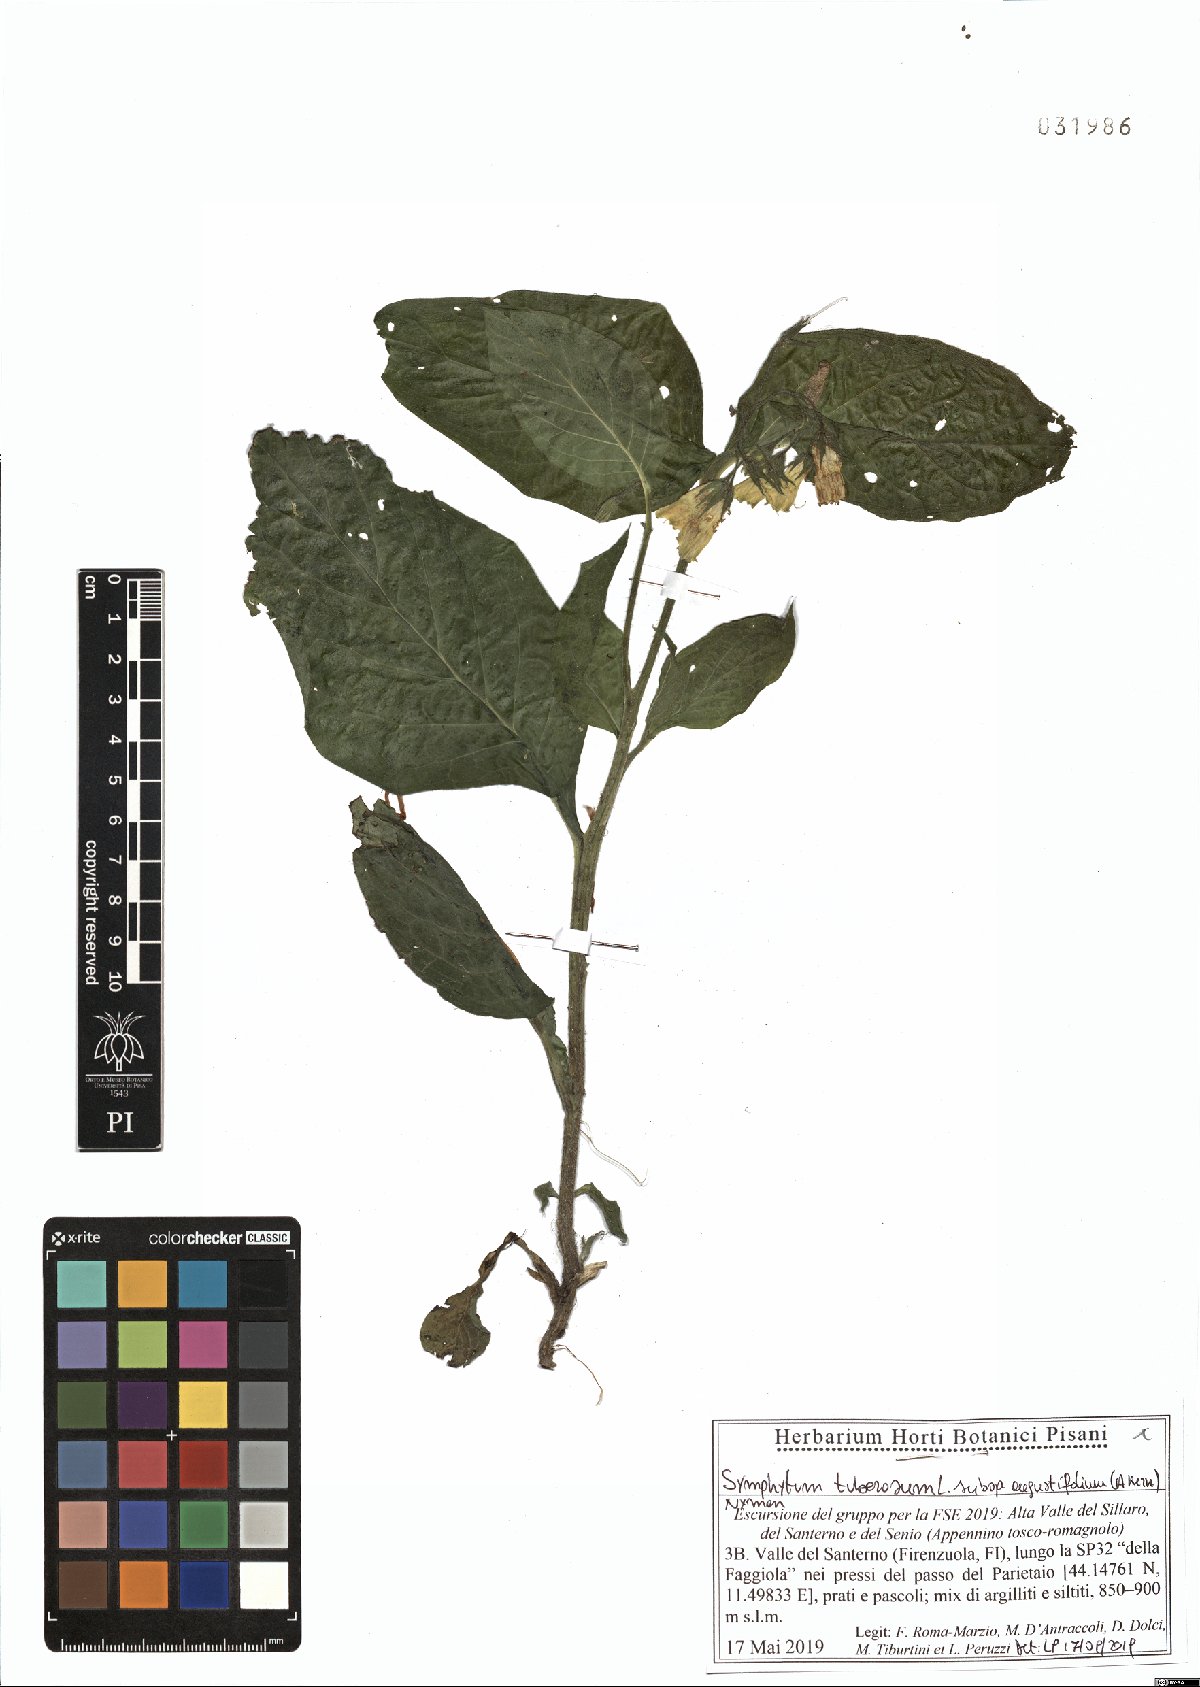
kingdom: Plantae
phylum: Tracheophyta
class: Magnoliopsida
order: Boraginales
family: Boraginaceae
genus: Symphytum
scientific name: Symphytum tuberosum
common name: Tuberous comfrey
